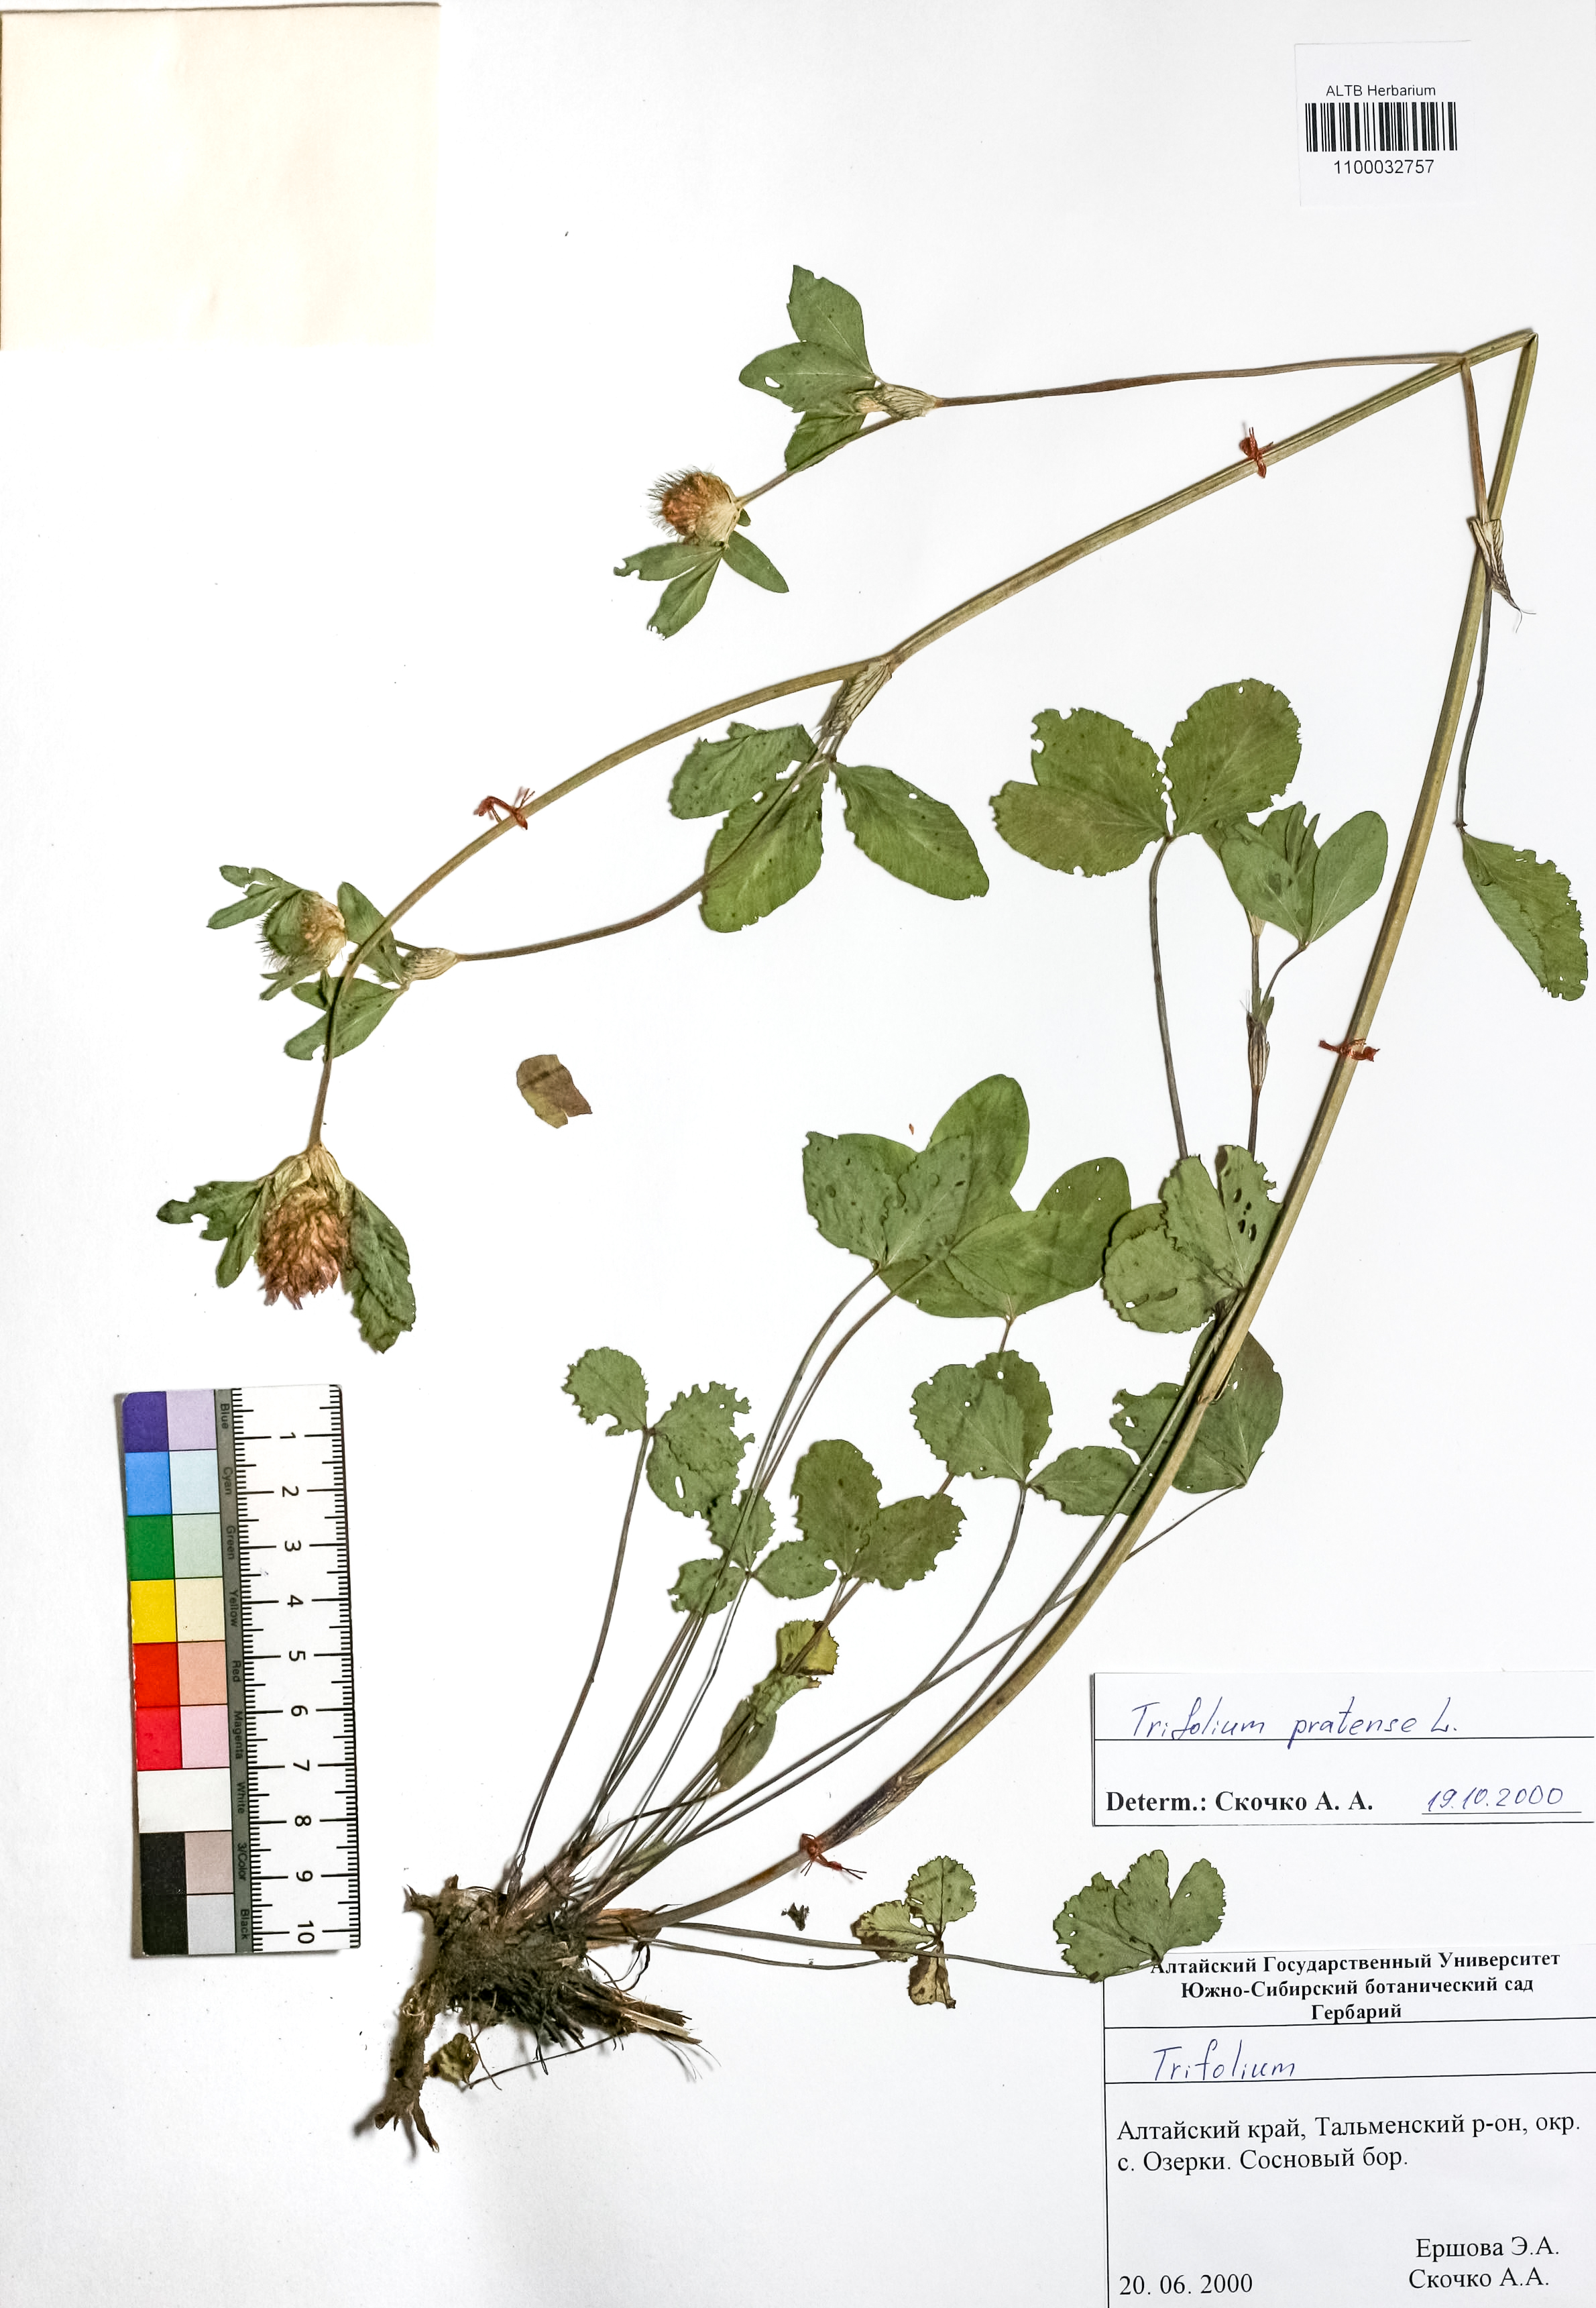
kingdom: Plantae
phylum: Tracheophyta
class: Magnoliopsida
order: Fabales
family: Fabaceae
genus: Trifolium
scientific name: Trifolium pratense
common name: Red clover
